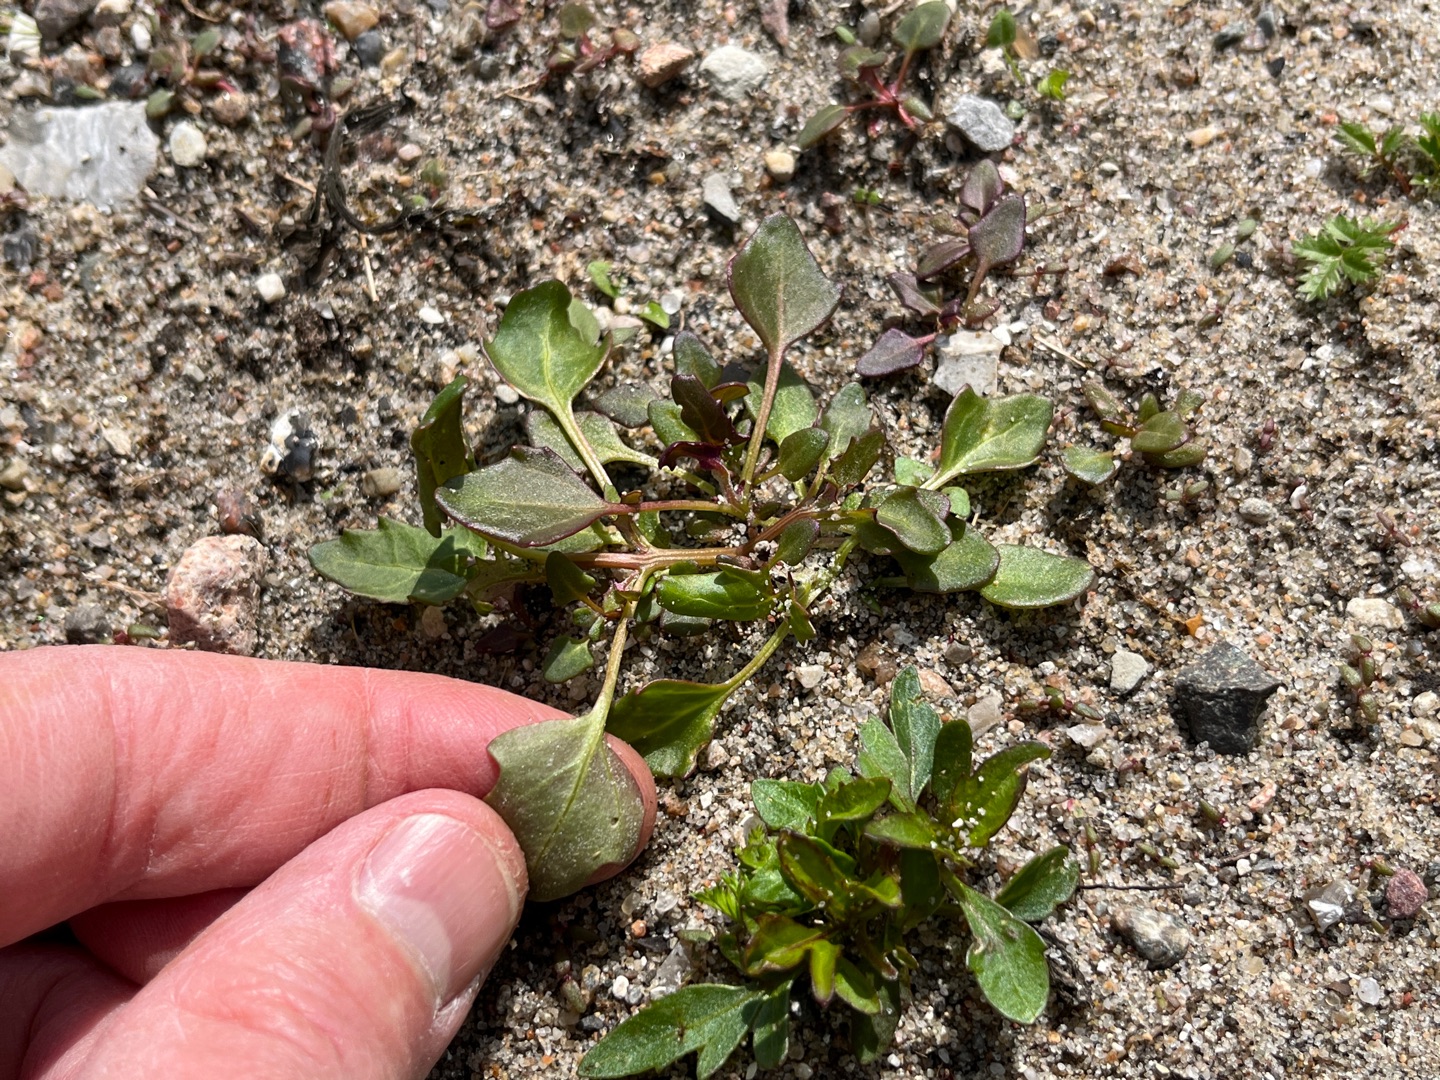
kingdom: Plantae
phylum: Tracheophyta
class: Magnoliopsida
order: Caryophyllales
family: Amaranthaceae
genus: Oxybasis
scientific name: Oxybasis rubra
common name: Rød gåsefod
